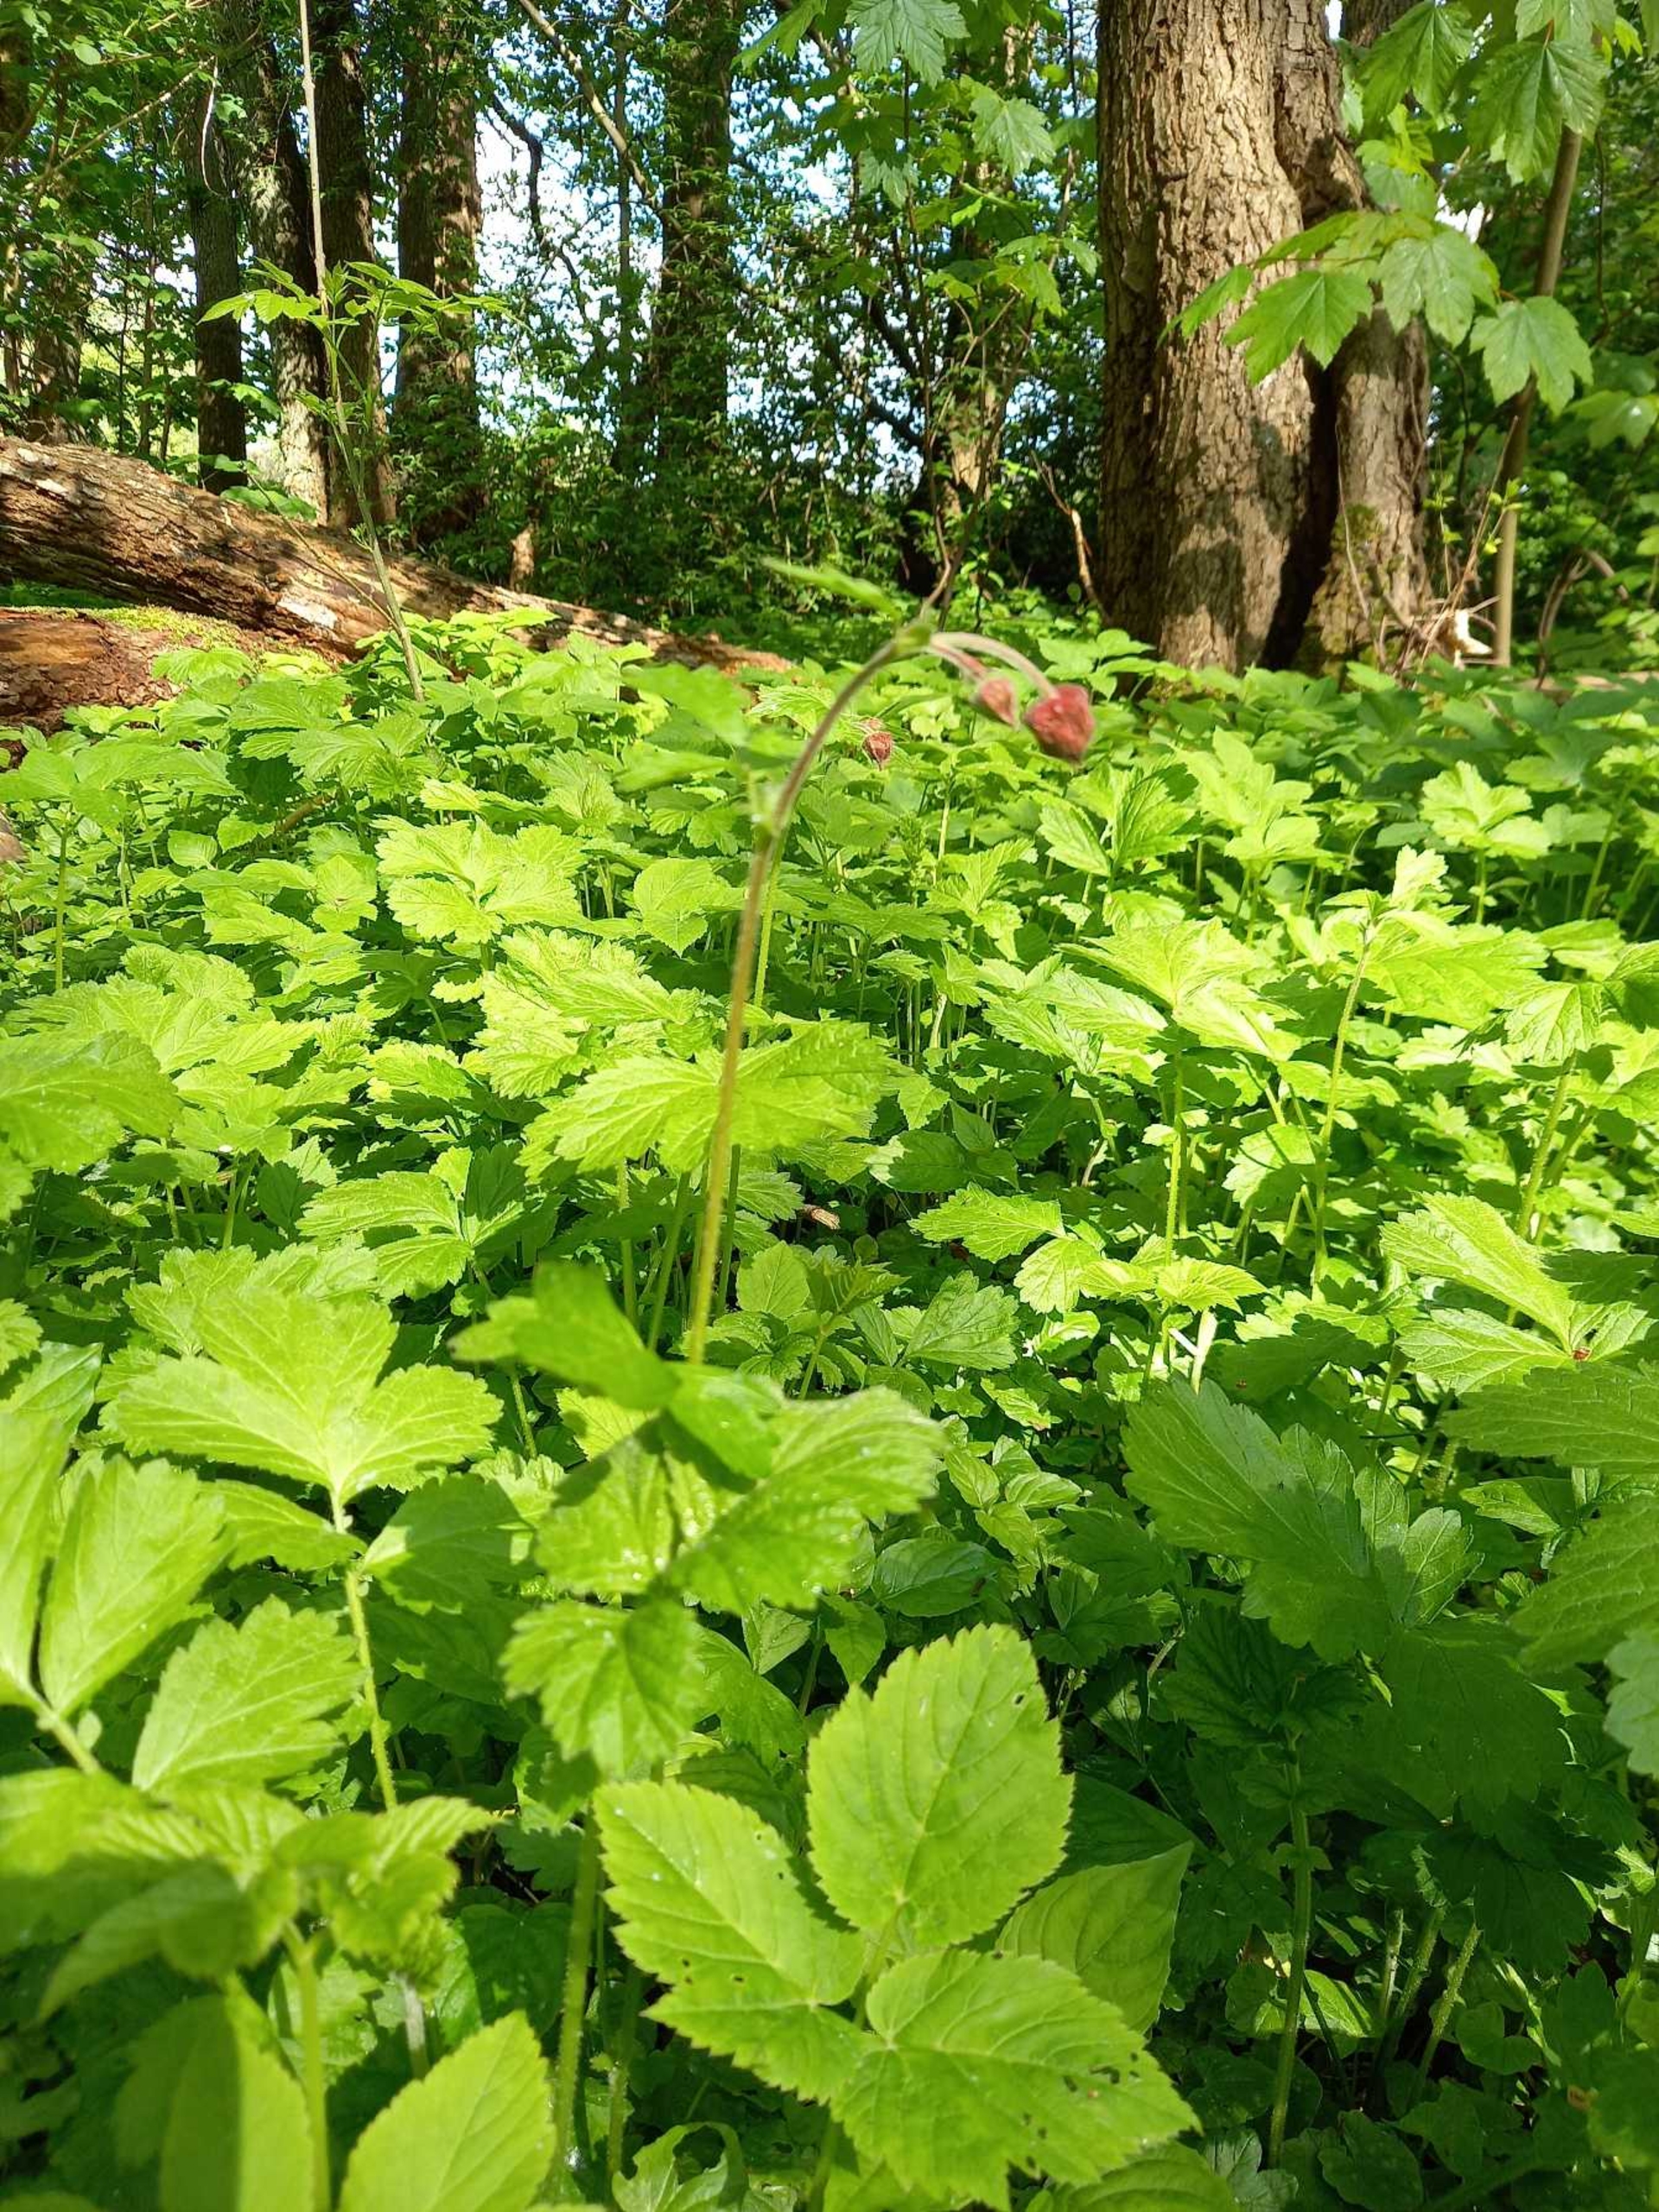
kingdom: Plantae
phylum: Tracheophyta
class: Magnoliopsida
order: Rosales
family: Rosaceae
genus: Geum
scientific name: Geum rivale
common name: Eng-nellikerod
